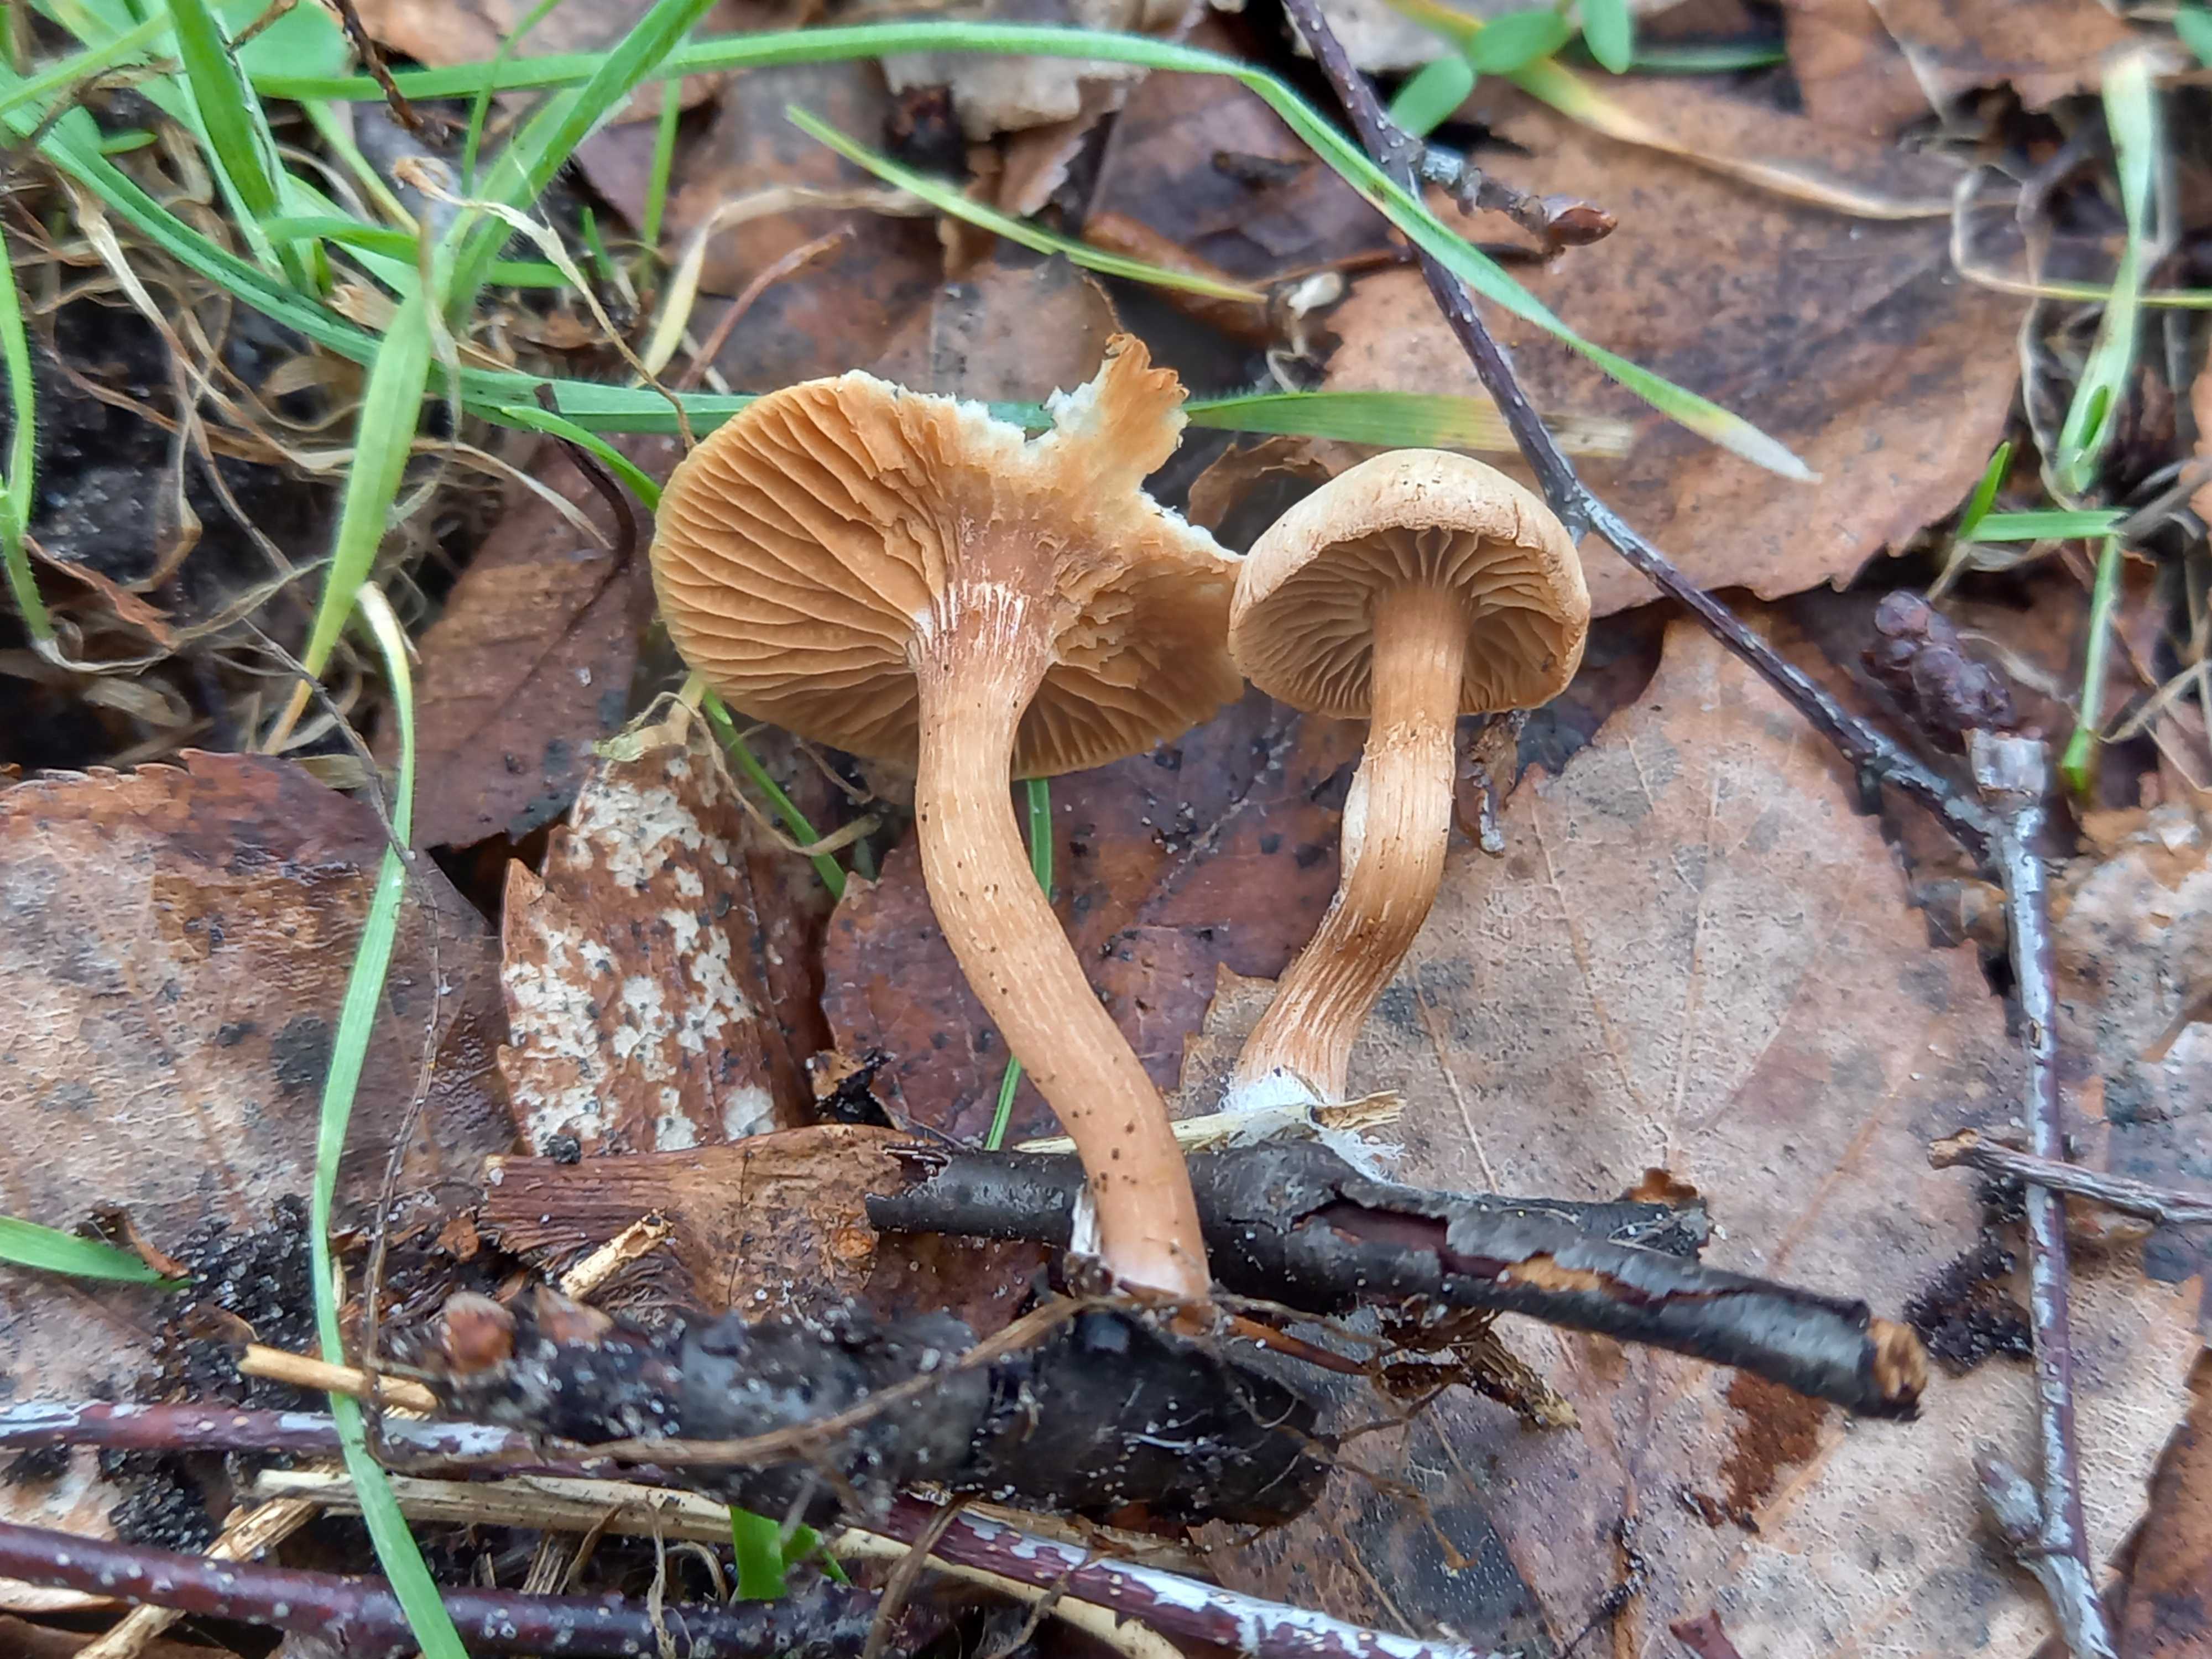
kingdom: Fungi
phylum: Basidiomycota
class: Agaricomycetes
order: Agaricales
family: Tubariaceae
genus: Tubaria
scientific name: Tubaria furfuracea
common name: kliddet fnughat
